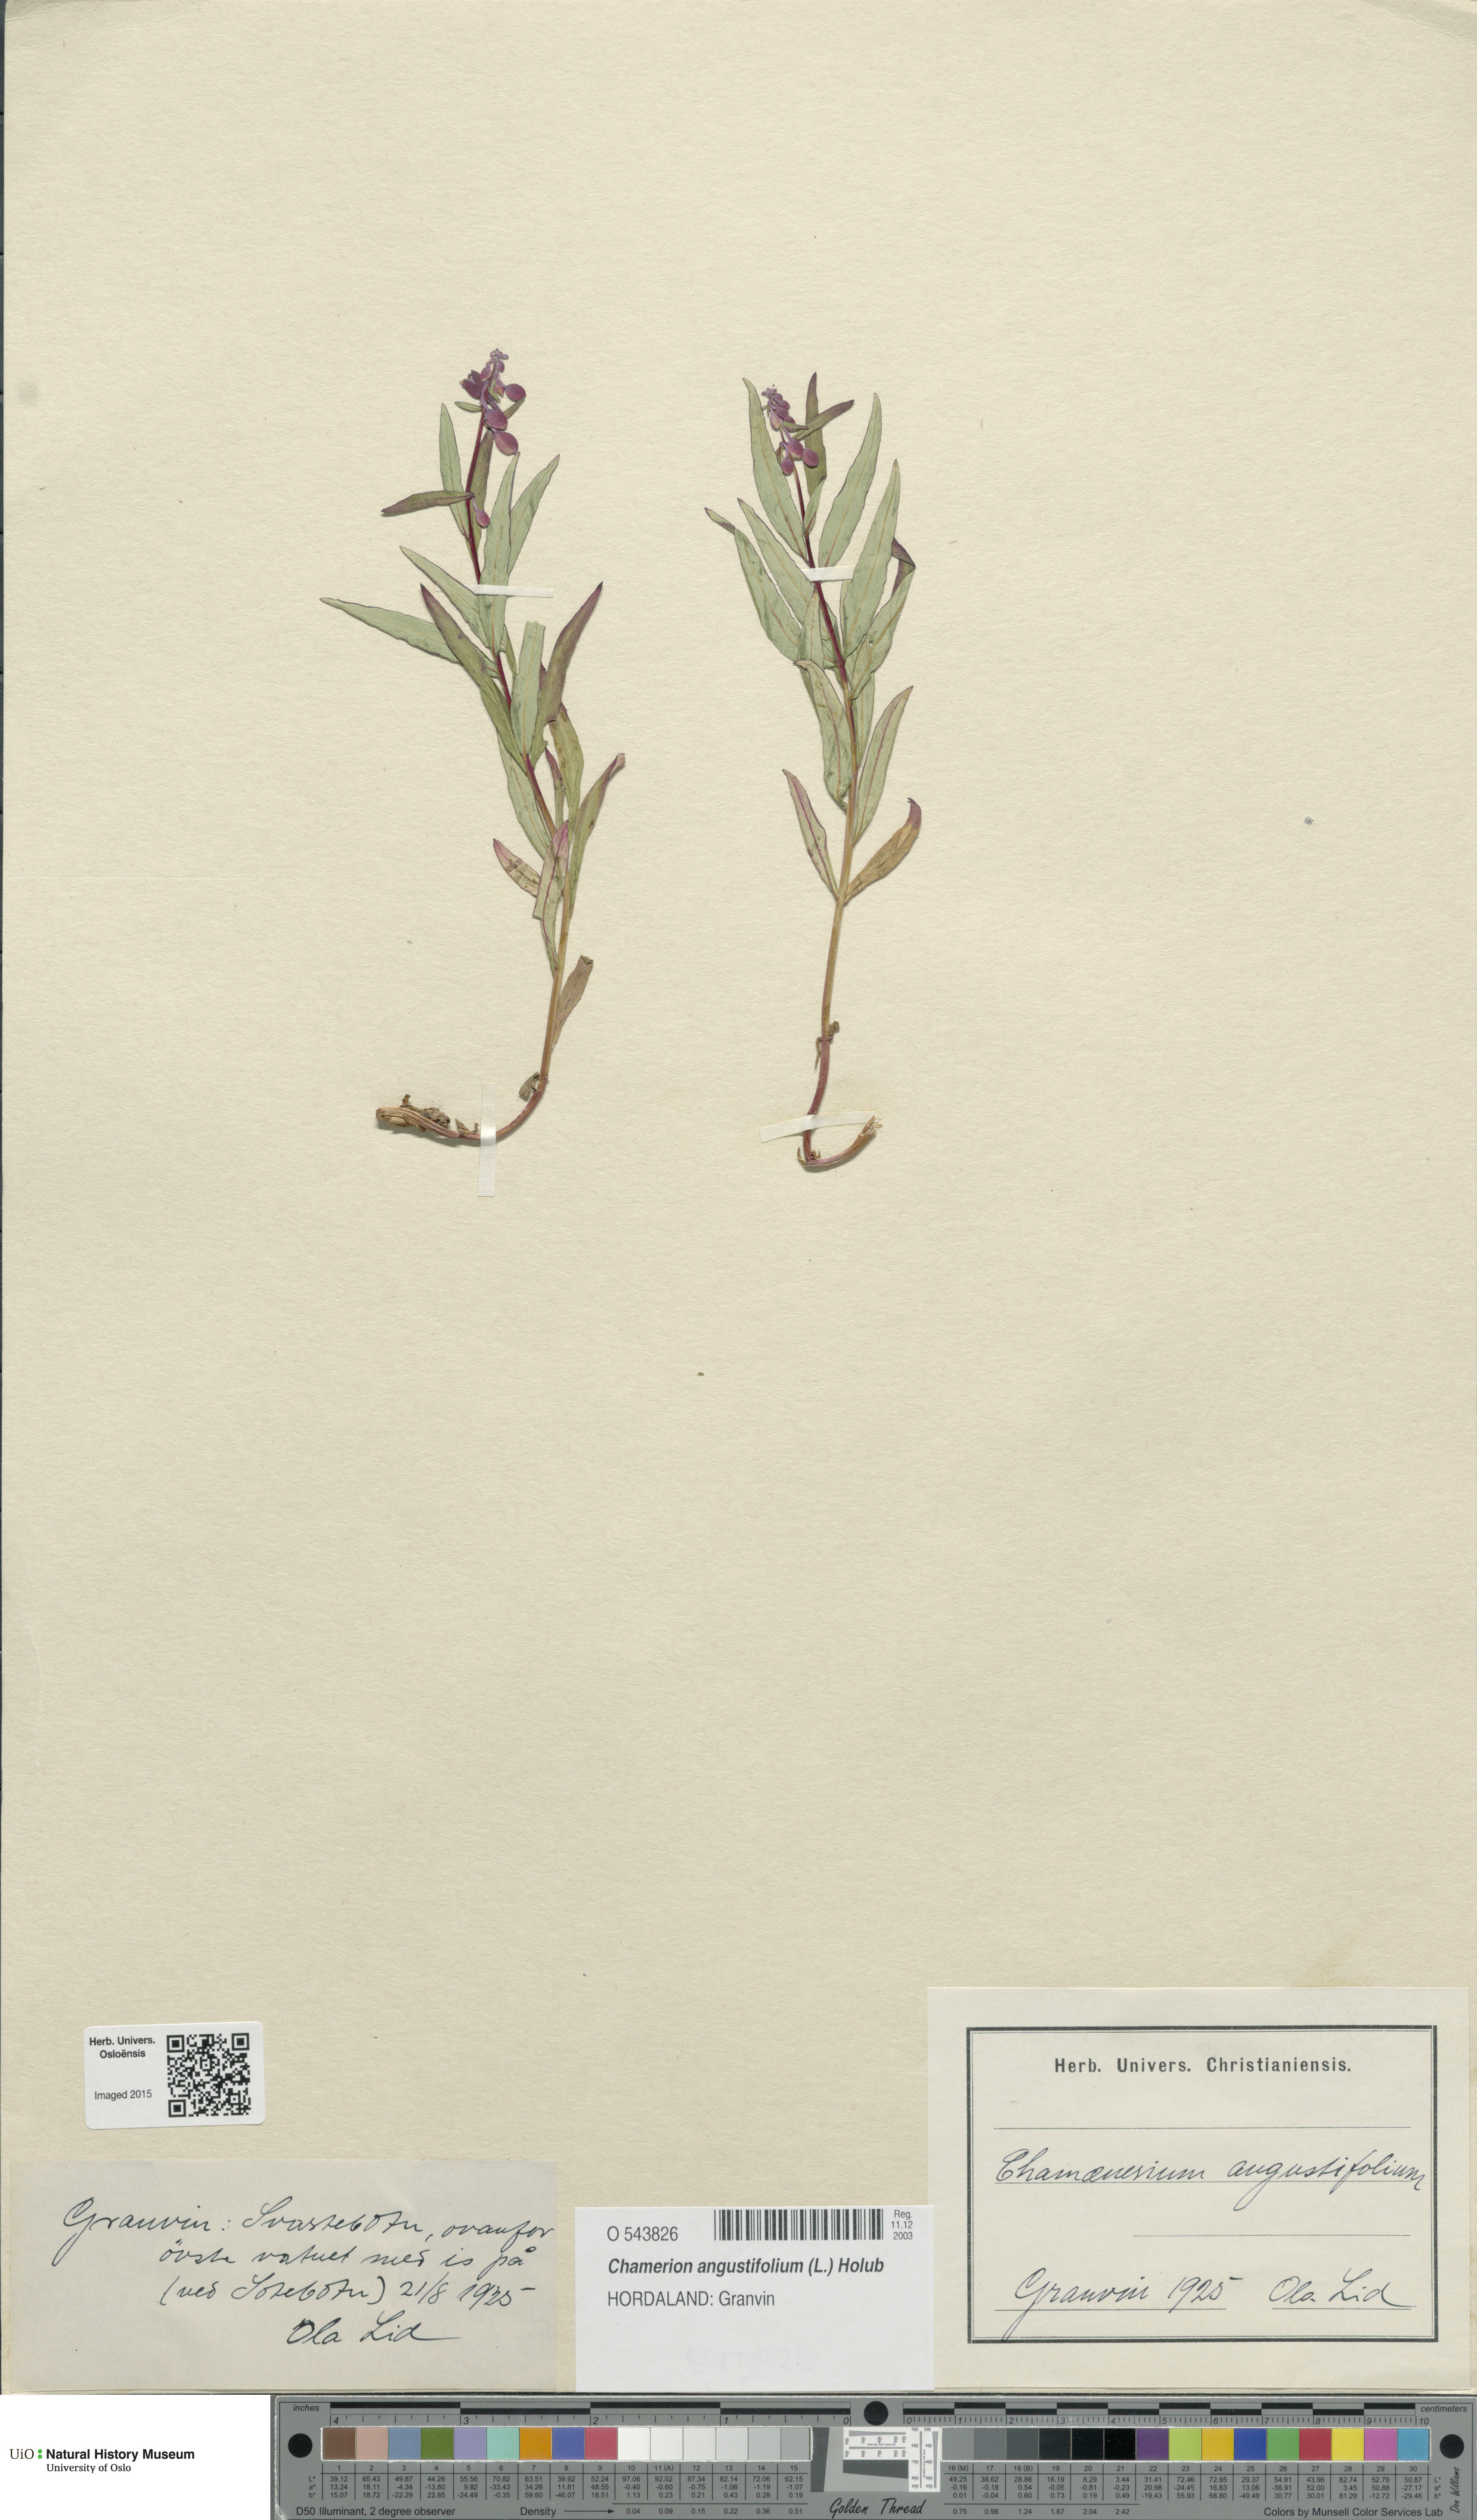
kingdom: Plantae
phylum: Tracheophyta
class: Magnoliopsida
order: Myrtales
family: Onagraceae
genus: Chamaenerion
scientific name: Chamaenerion angustifolium
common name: Fireweed
